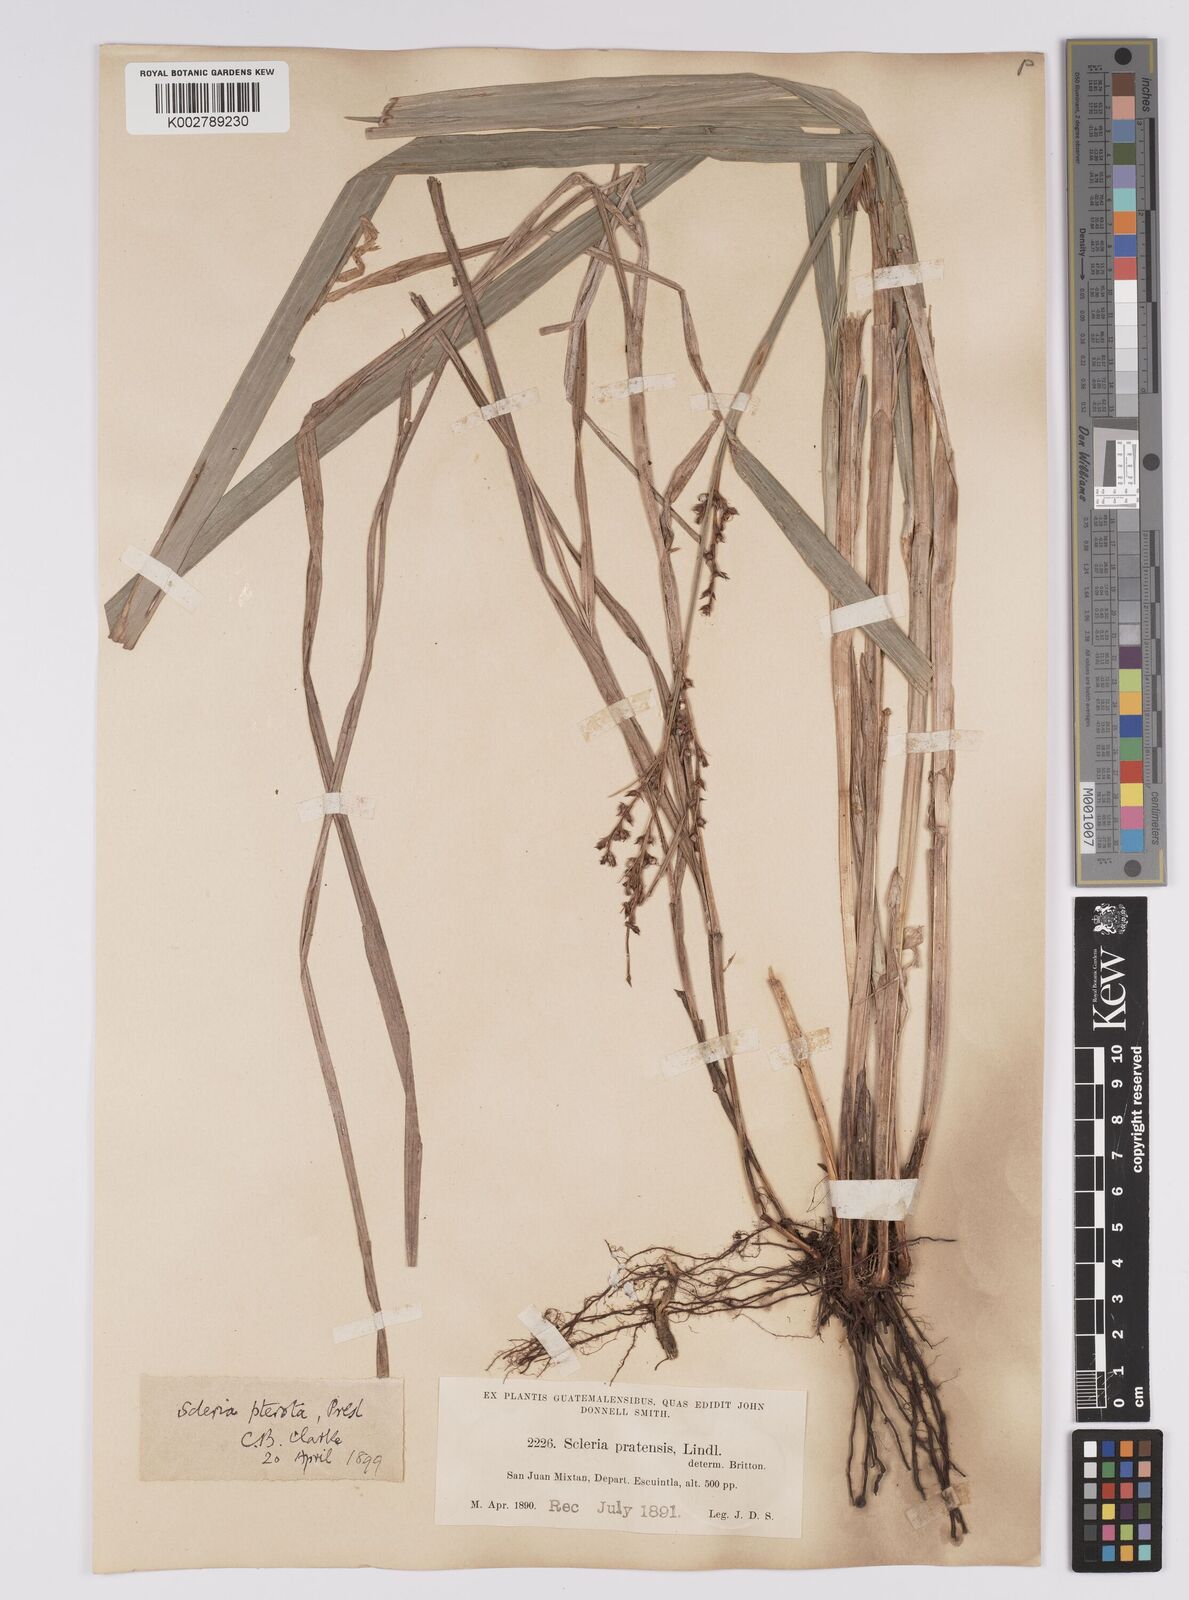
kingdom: Plantae
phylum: Tracheophyta
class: Liliopsida
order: Poales
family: Cyperaceae
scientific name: Cyperaceae
